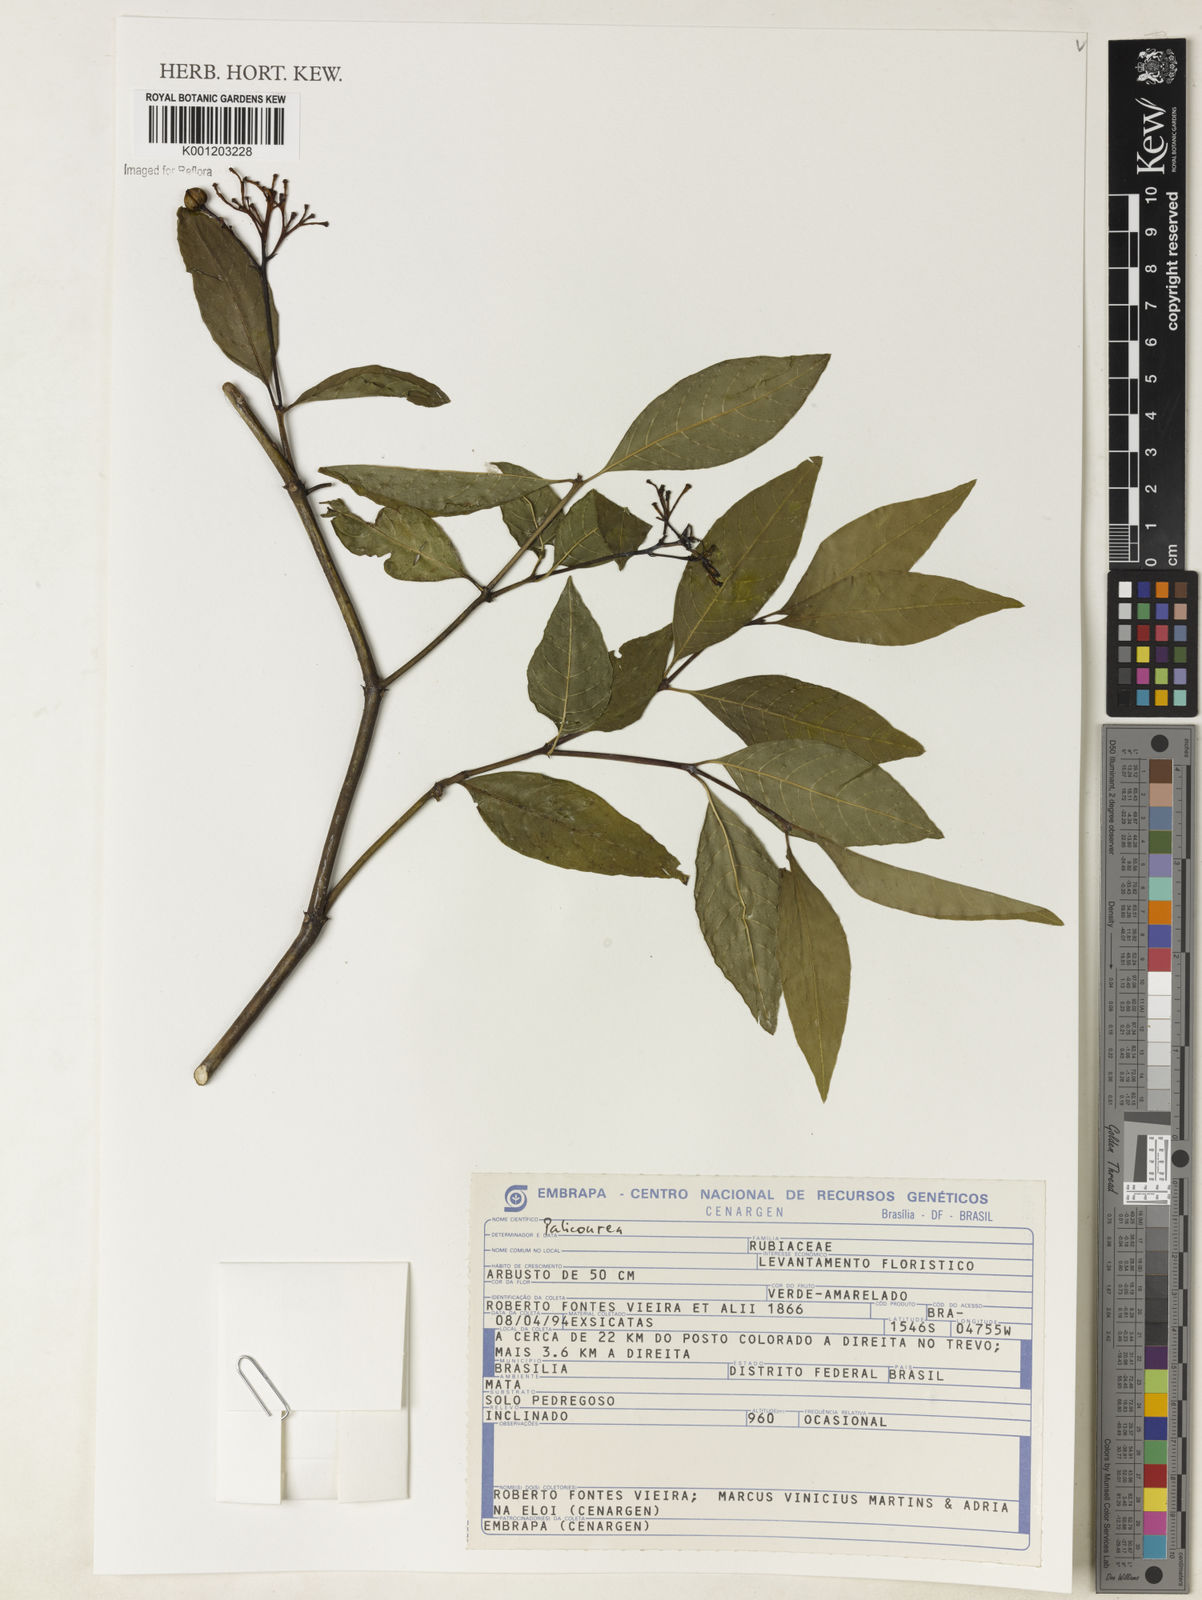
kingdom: Plantae
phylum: Tracheophyta
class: Magnoliopsida
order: Gentianales
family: Rubiaceae
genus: Palicourea
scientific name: Palicourea
